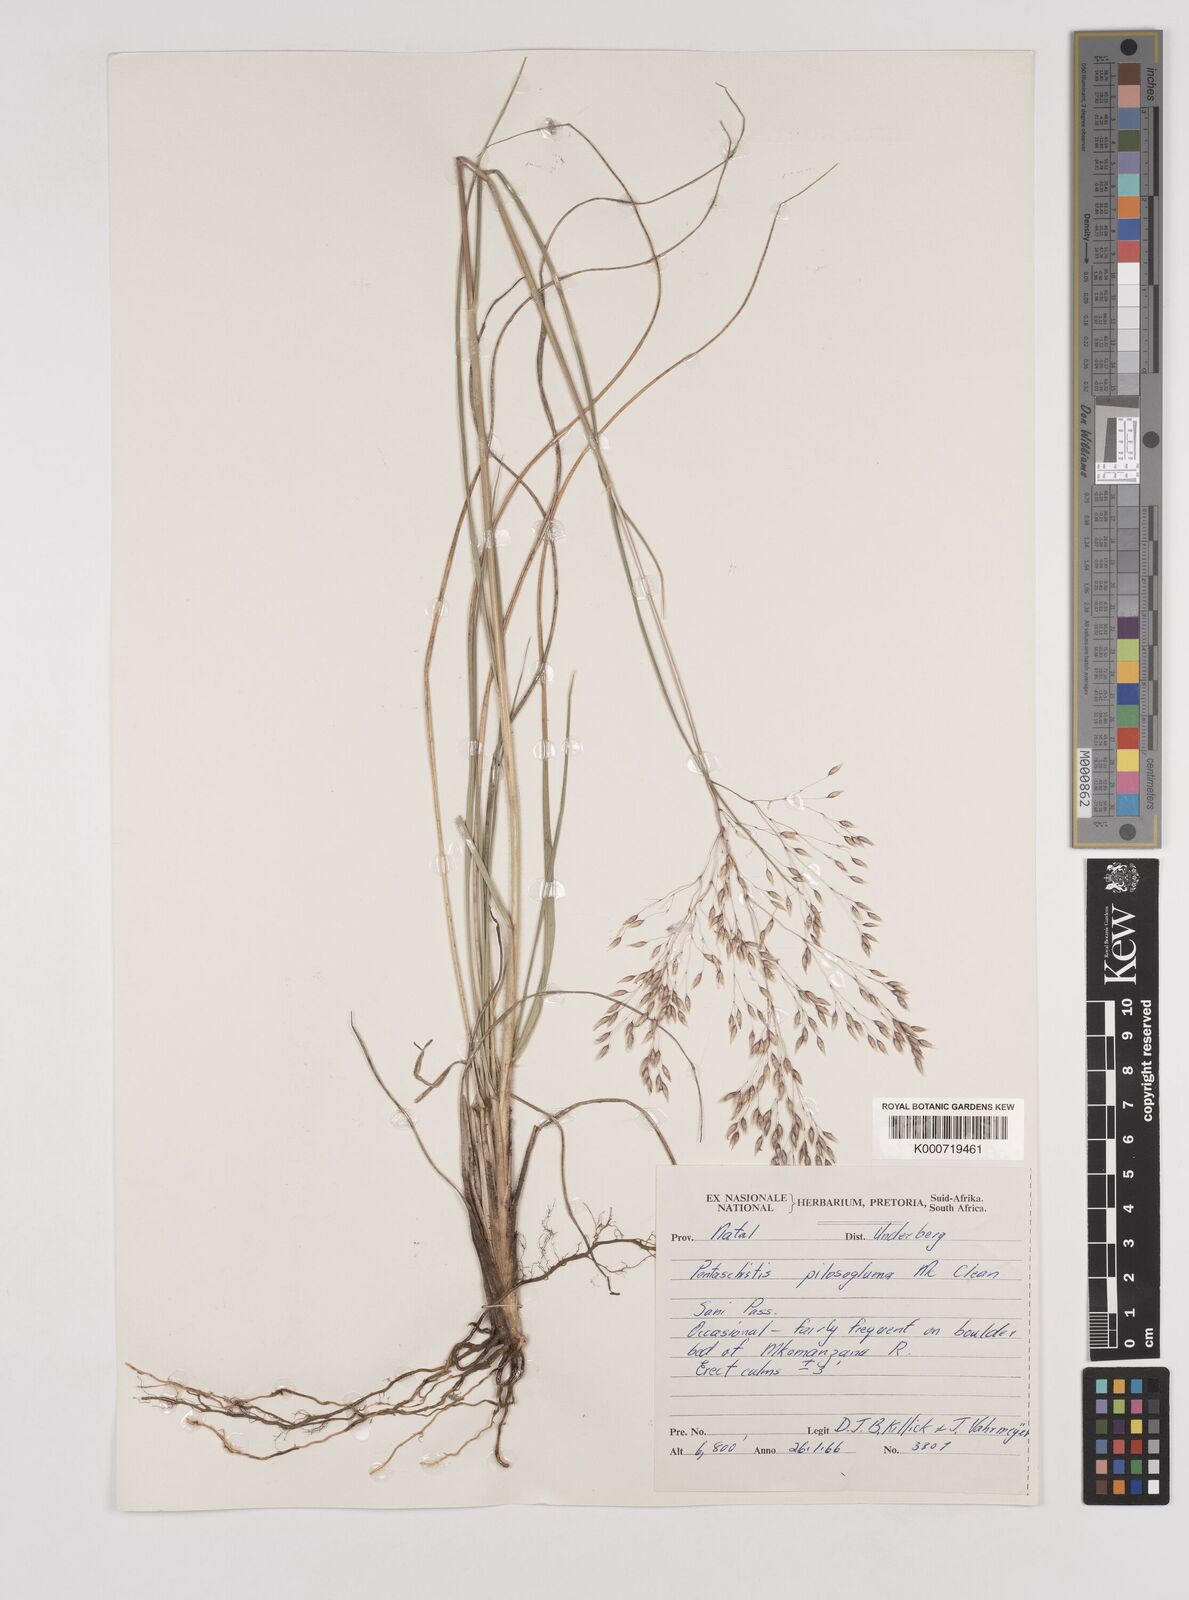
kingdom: Plantae
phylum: Tracheophyta
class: Liliopsida
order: Poales
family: Poaceae
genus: Pentameris
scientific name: Pentameris aurea
